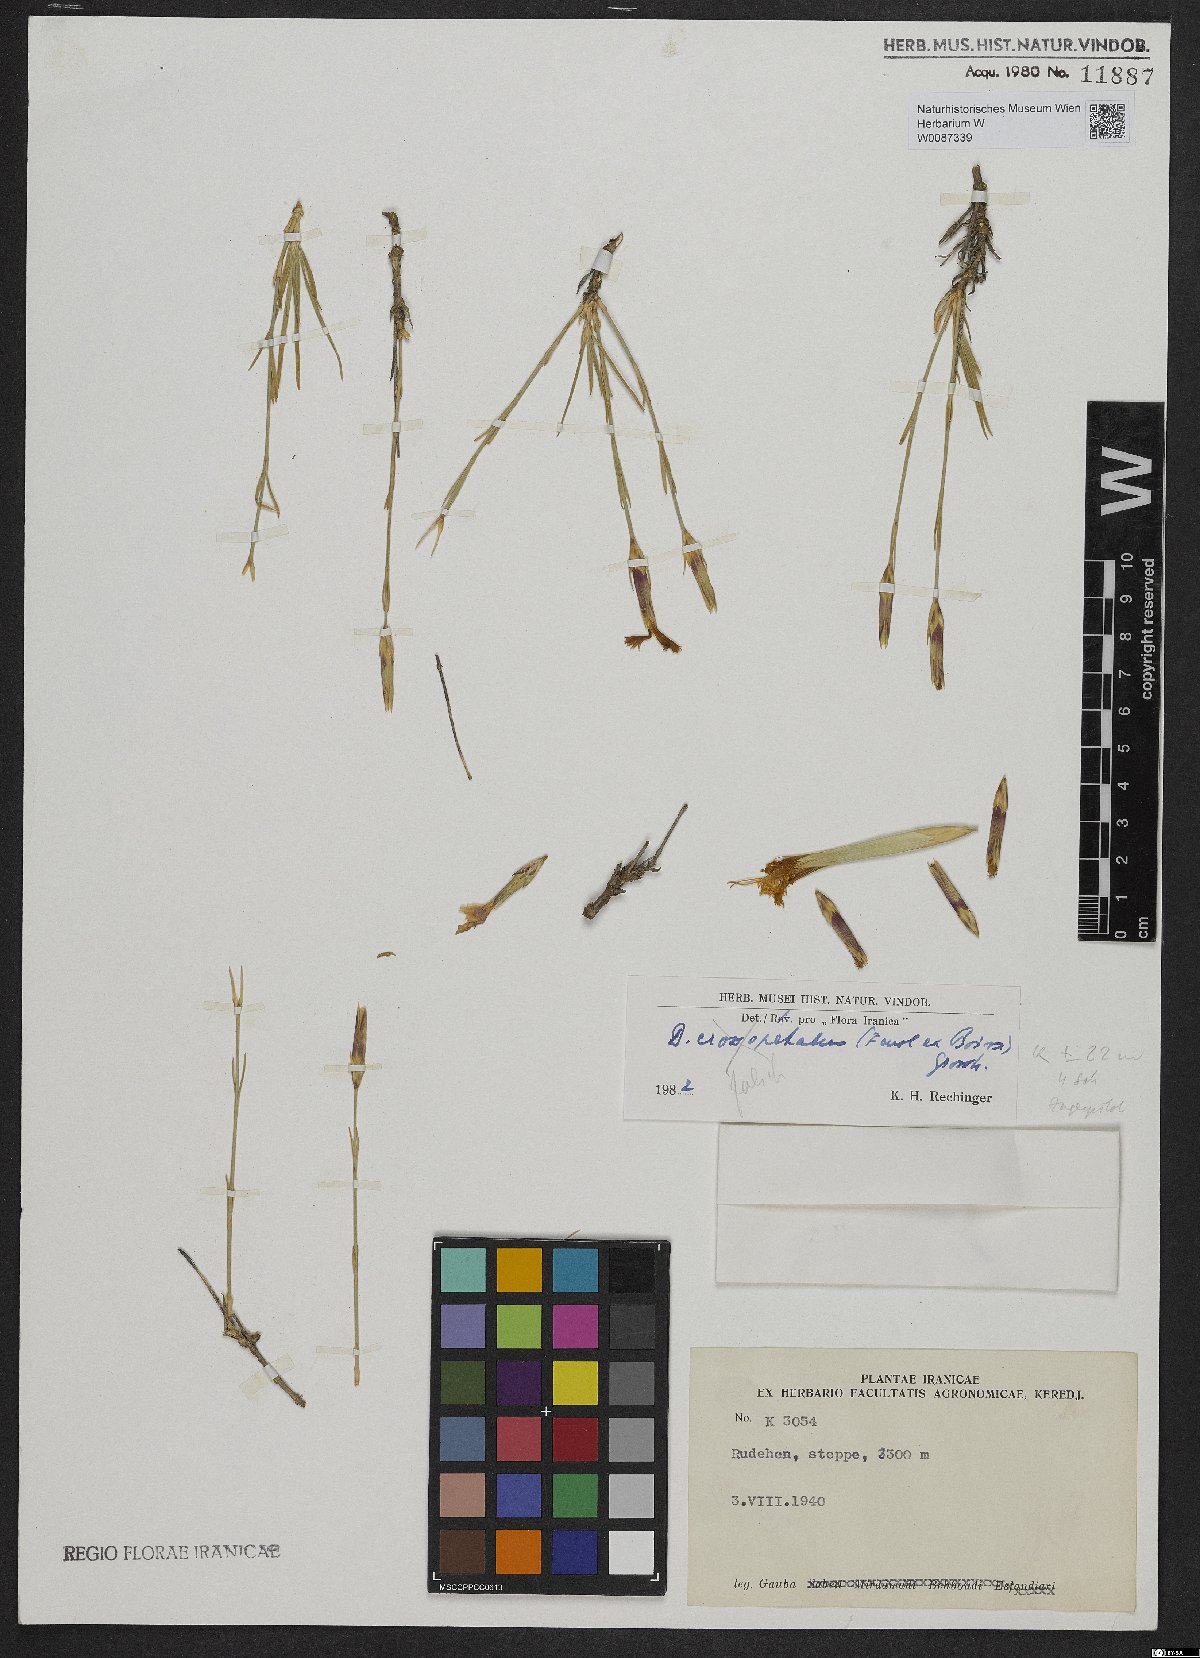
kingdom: Plantae
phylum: Tracheophyta
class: Magnoliopsida
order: Caryophyllales
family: Caryophyllaceae
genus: Dianthus
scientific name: Dianthus
